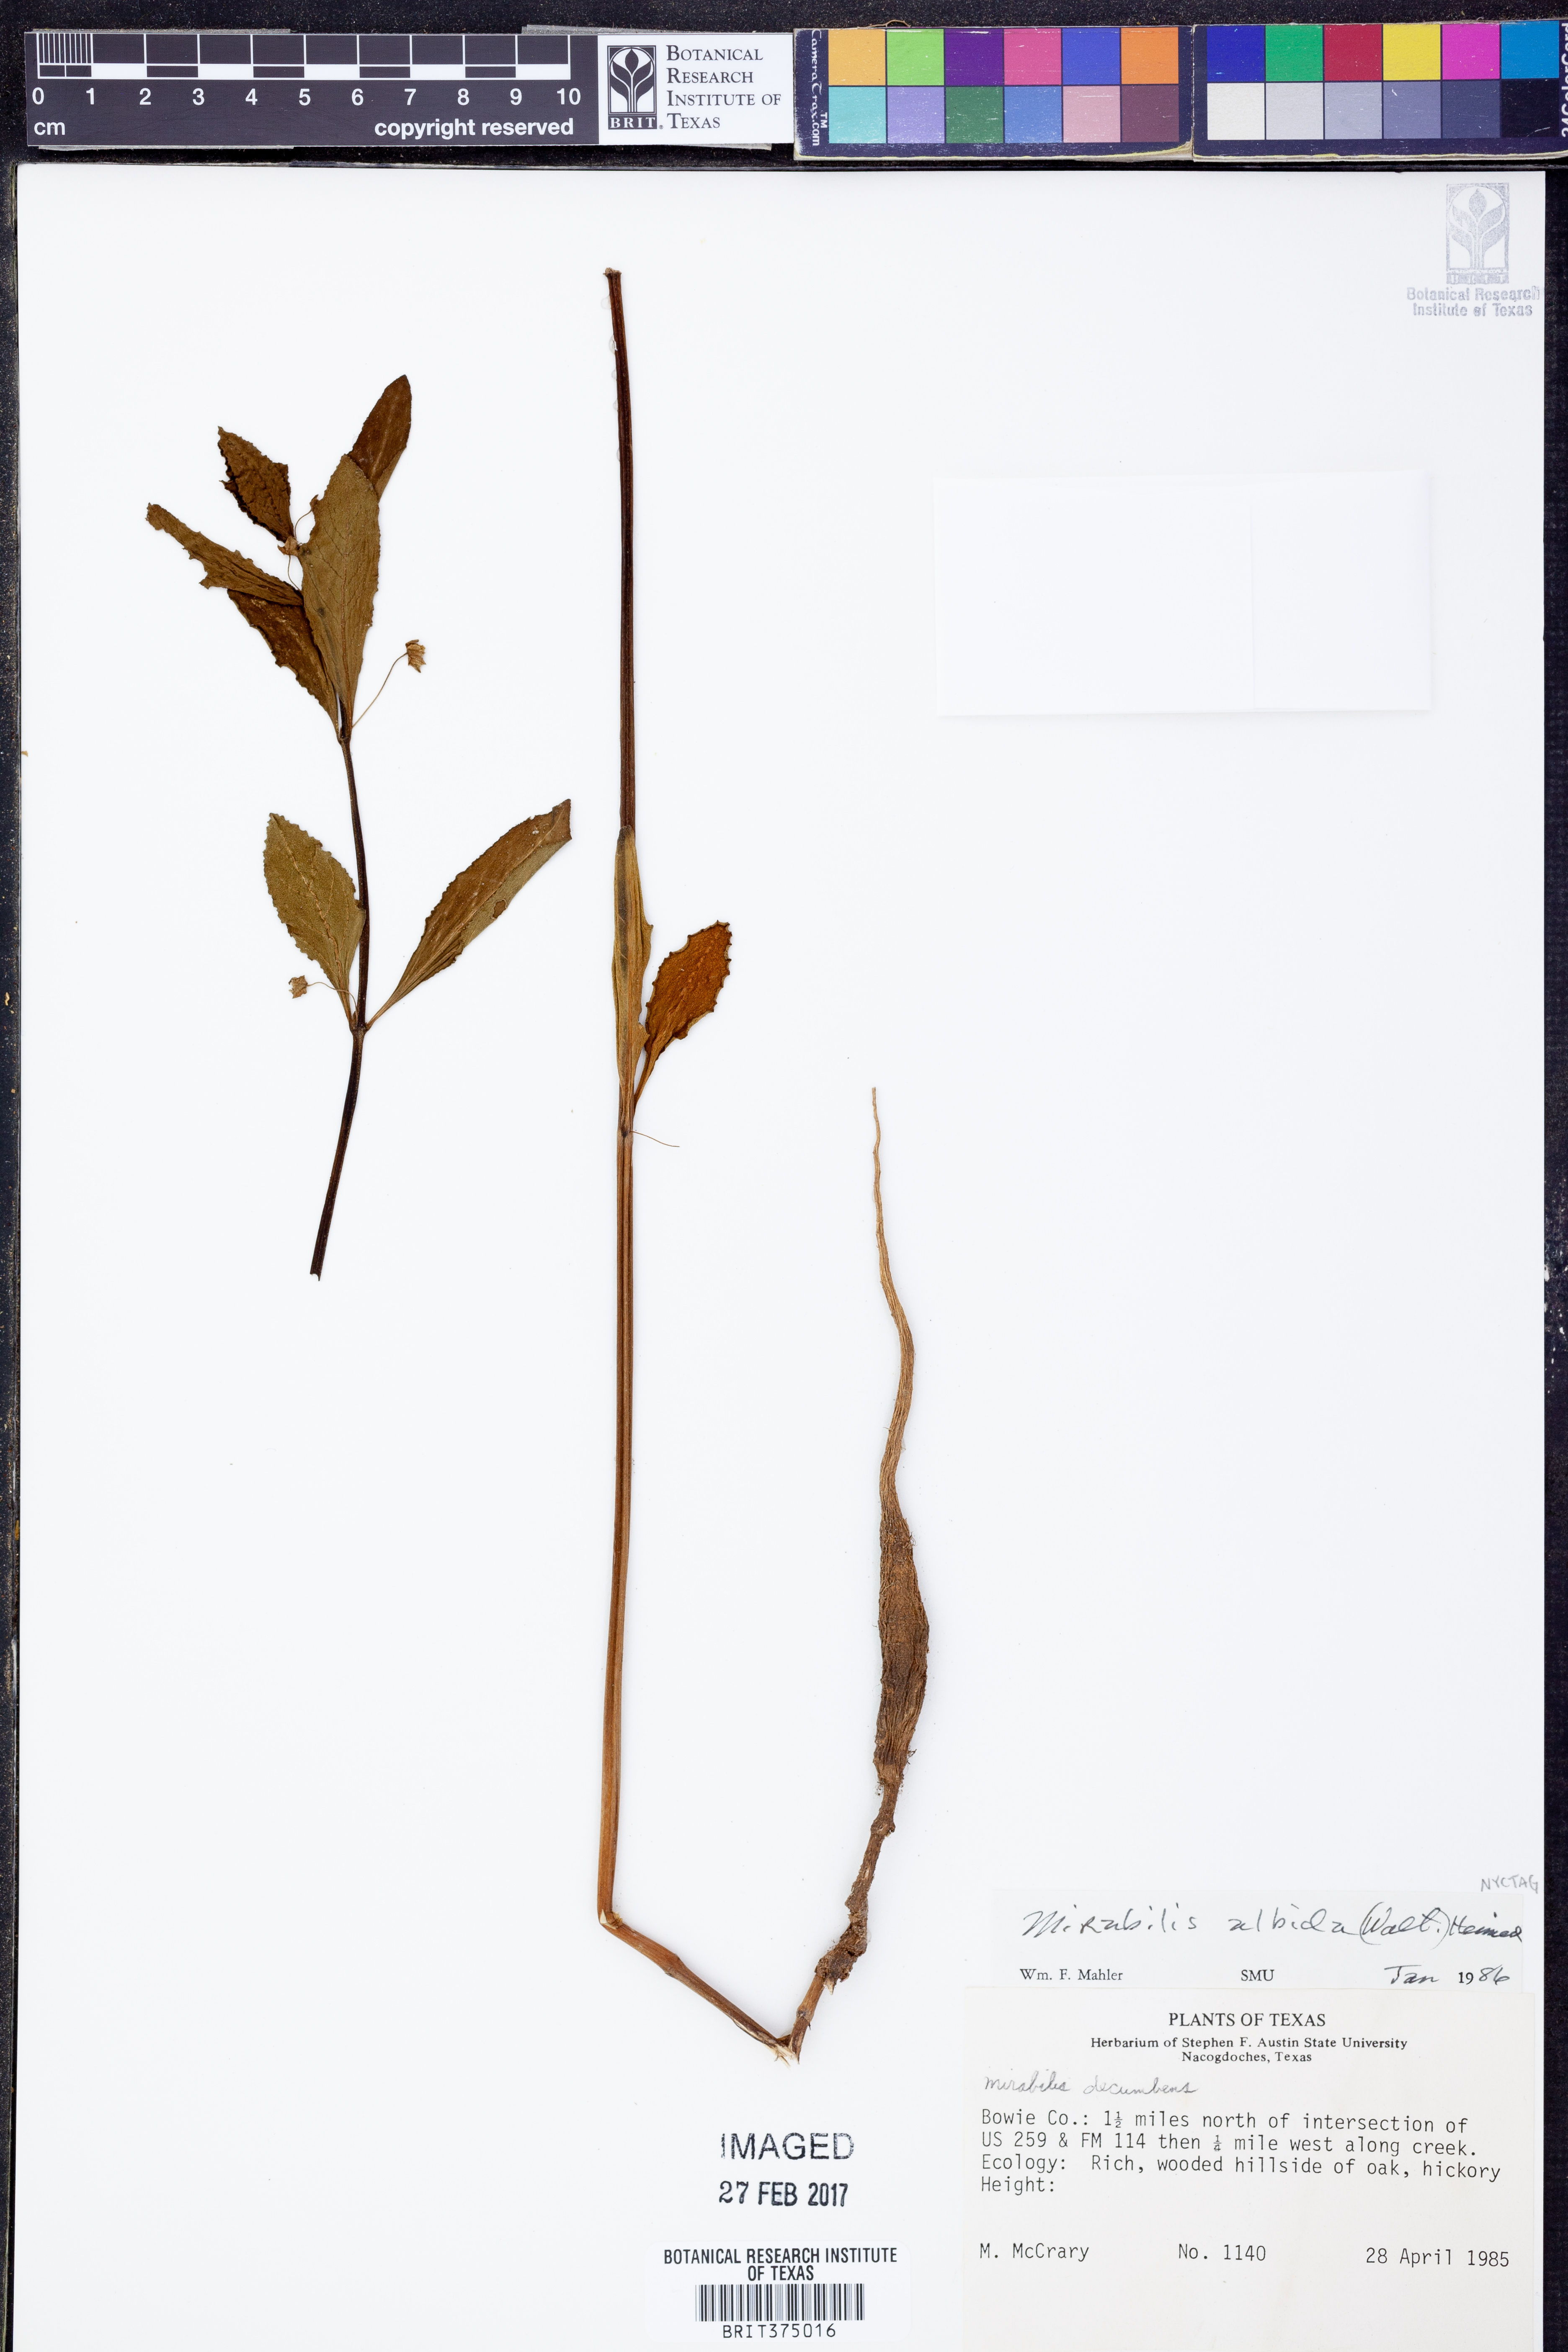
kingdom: Plantae
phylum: Tracheophyta
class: Magnoliopsida
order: Caryophyllales
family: Nyctaginaceae
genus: Mirabilis
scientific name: Mirabilis albida
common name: Hairy four-o'clock
